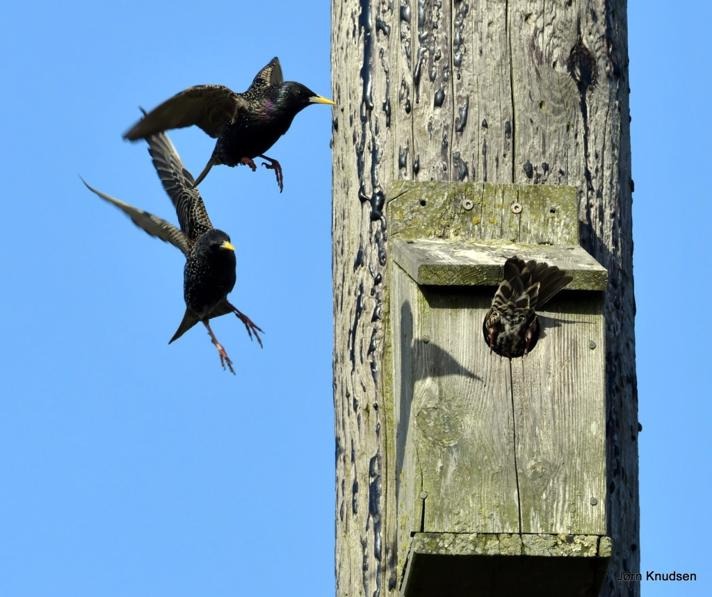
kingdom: Animalia
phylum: Chordata
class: Aves
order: Passeriformes
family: Sturnidae
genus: Sturnus
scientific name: Sturnus vulgaris
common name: Stær
